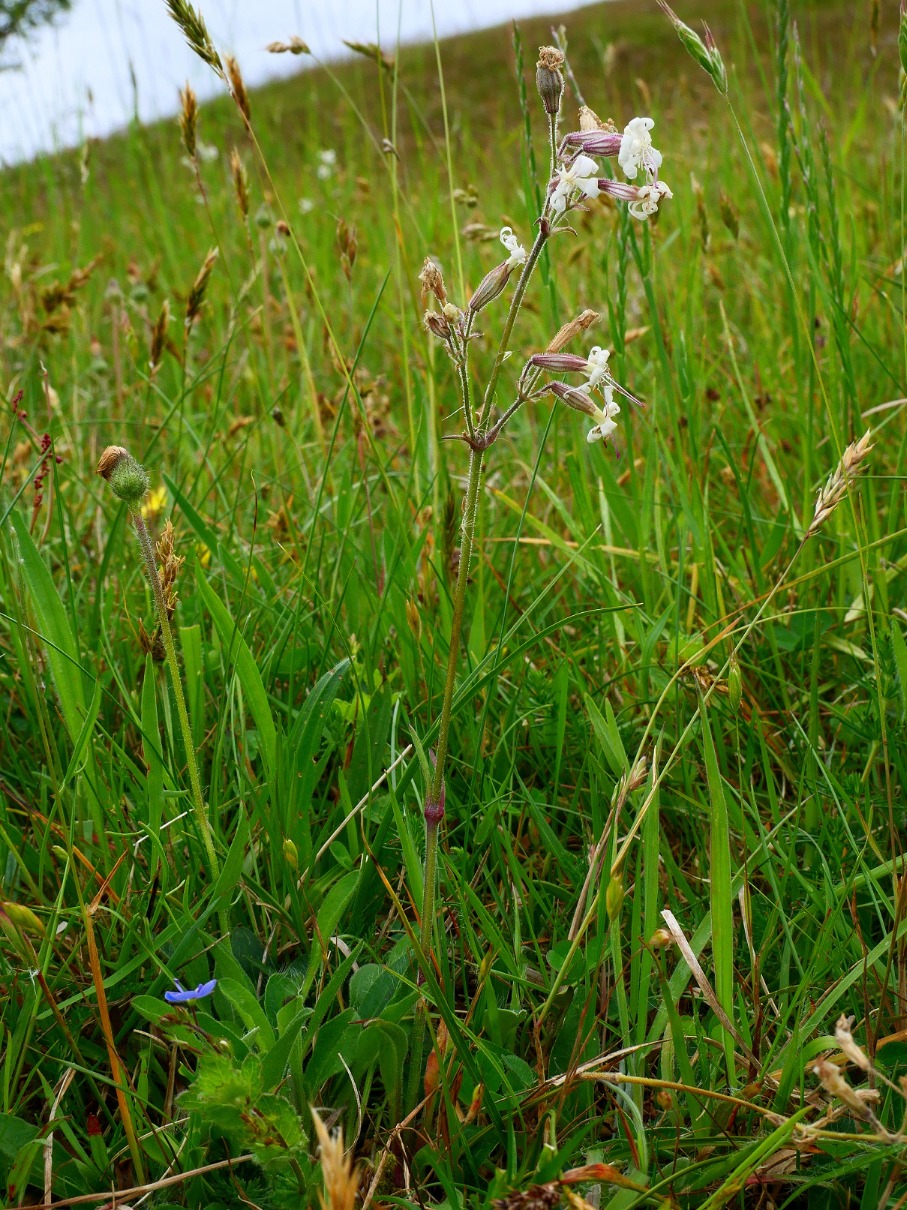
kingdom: Plantae
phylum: Tracheophyta
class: Magnoliopsida
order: Caryophyllales
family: Caryophyllaceae
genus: Silene
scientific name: Silene nutans
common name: Nikkende limurt
